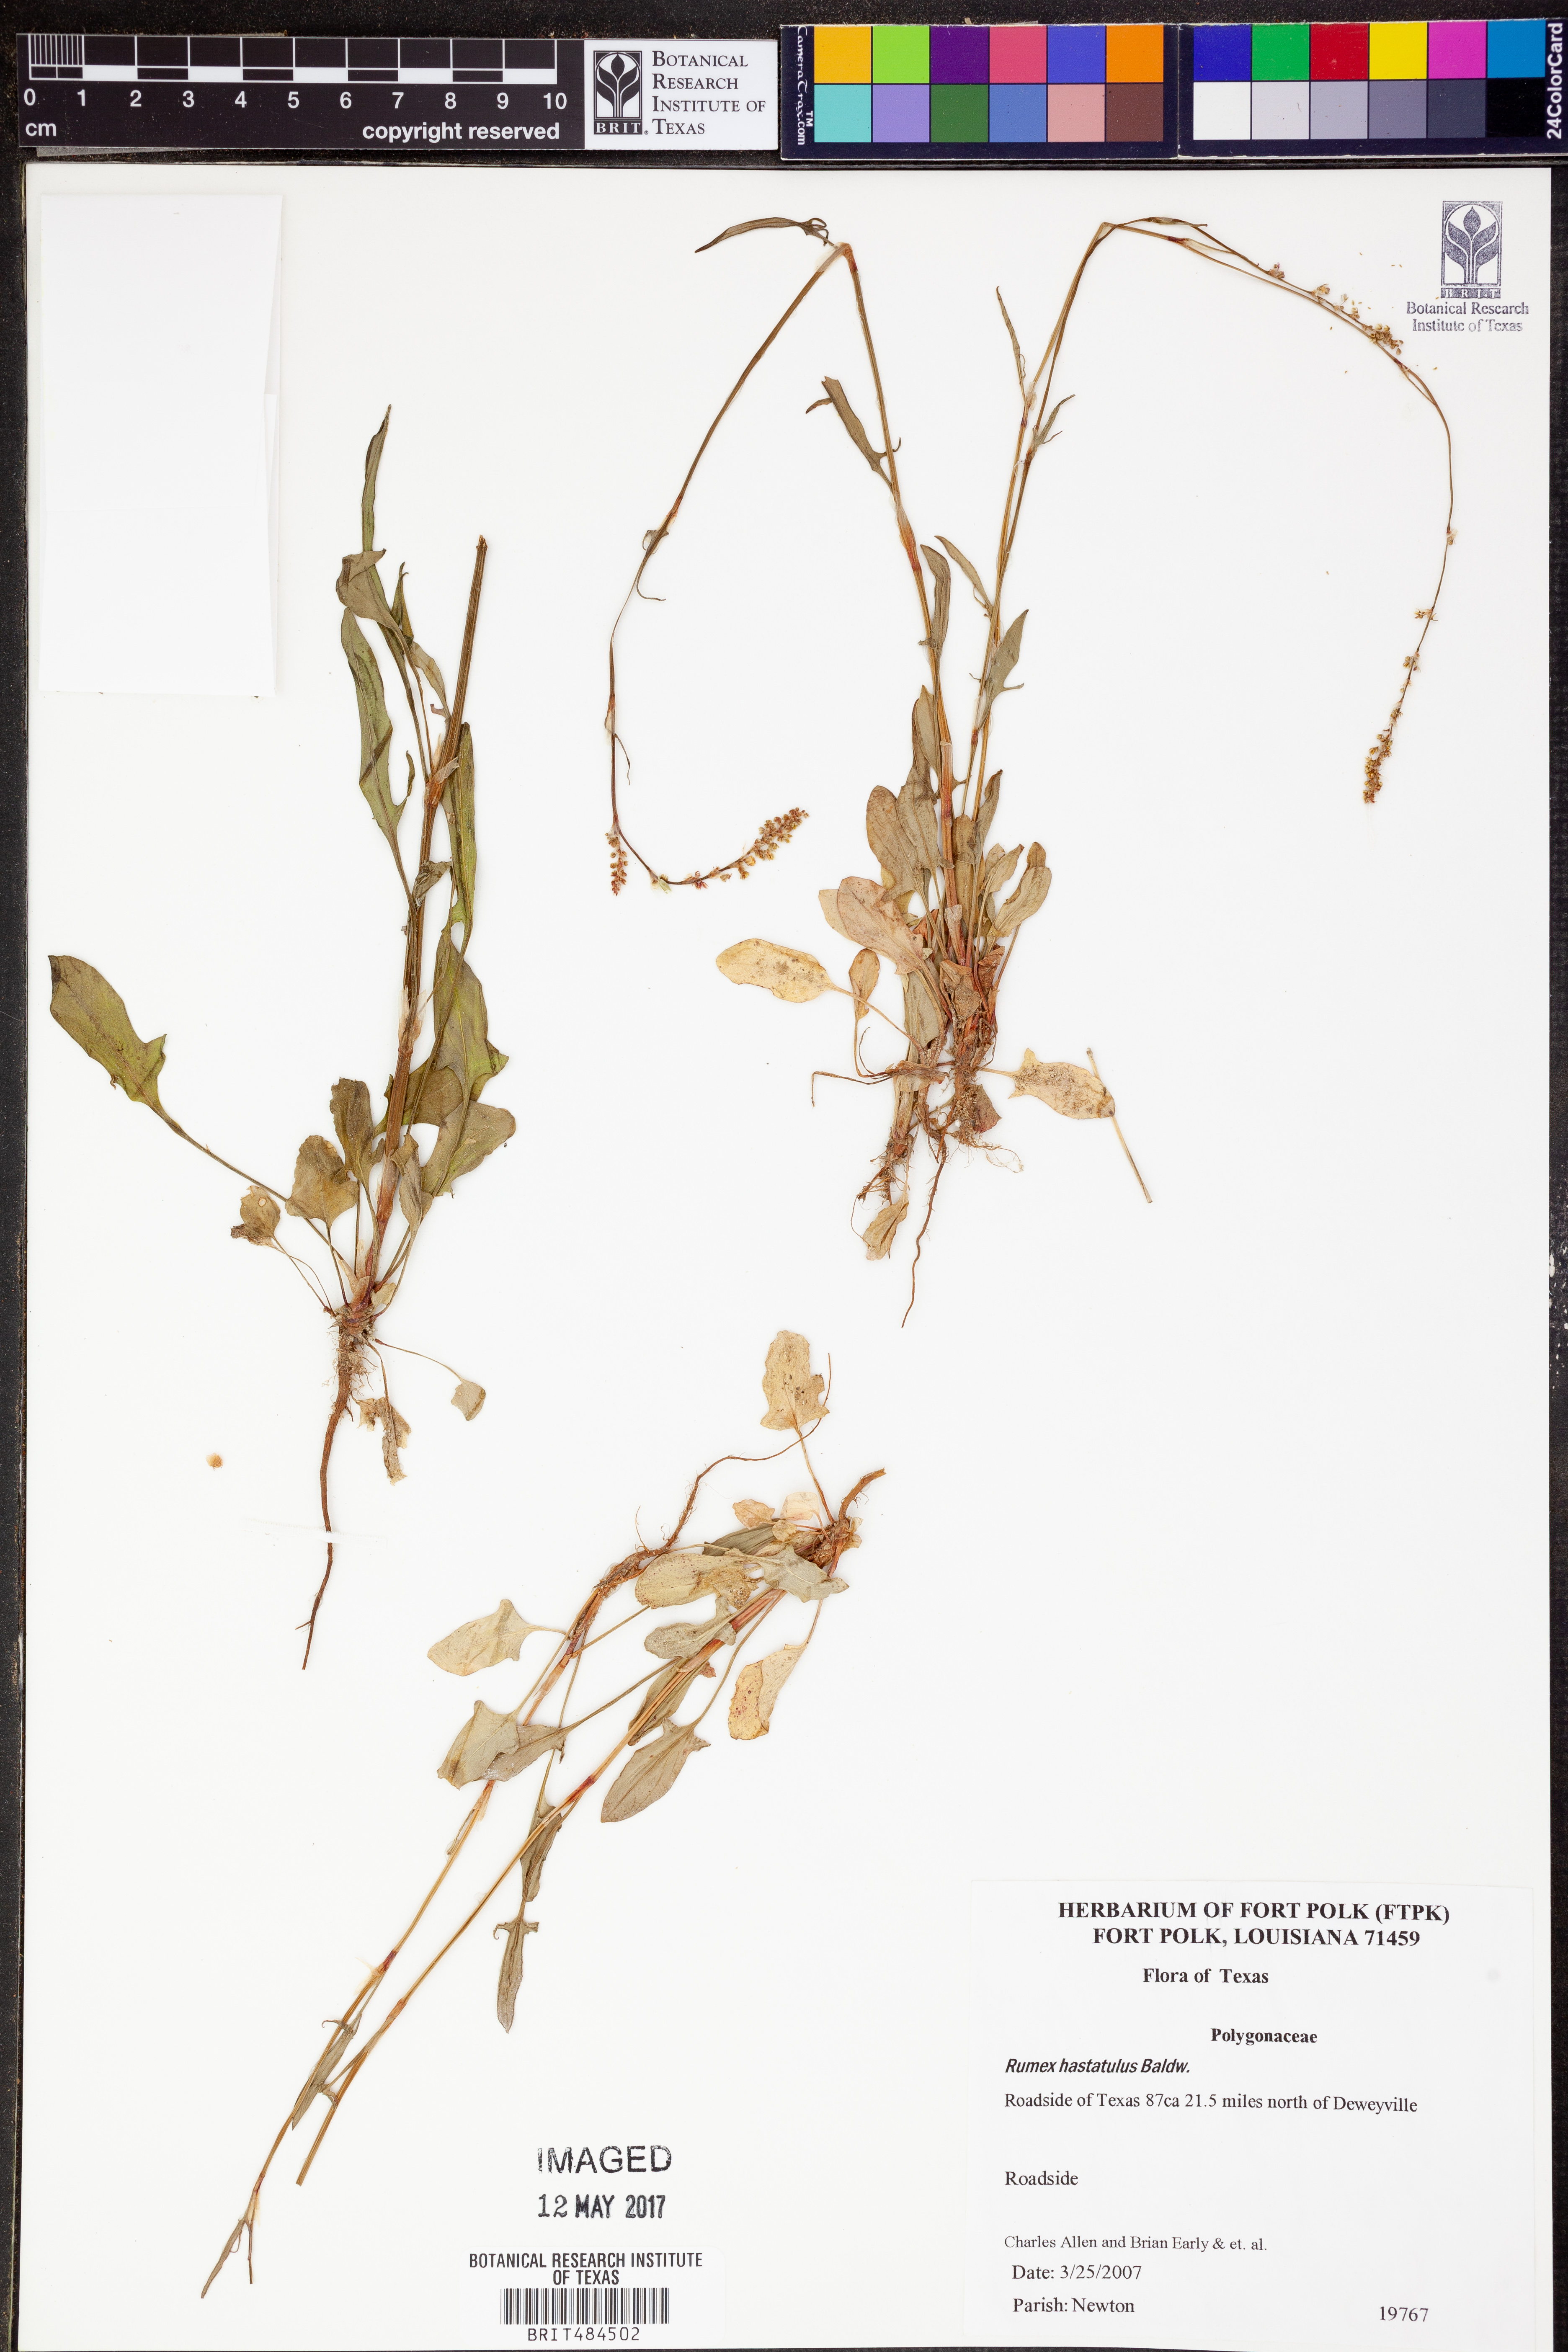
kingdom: Plantae
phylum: Tracheophyta
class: Magnoliopsida
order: Caryophyllales
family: Polygonaceae
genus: Rumex
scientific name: Rumex hastatulus
